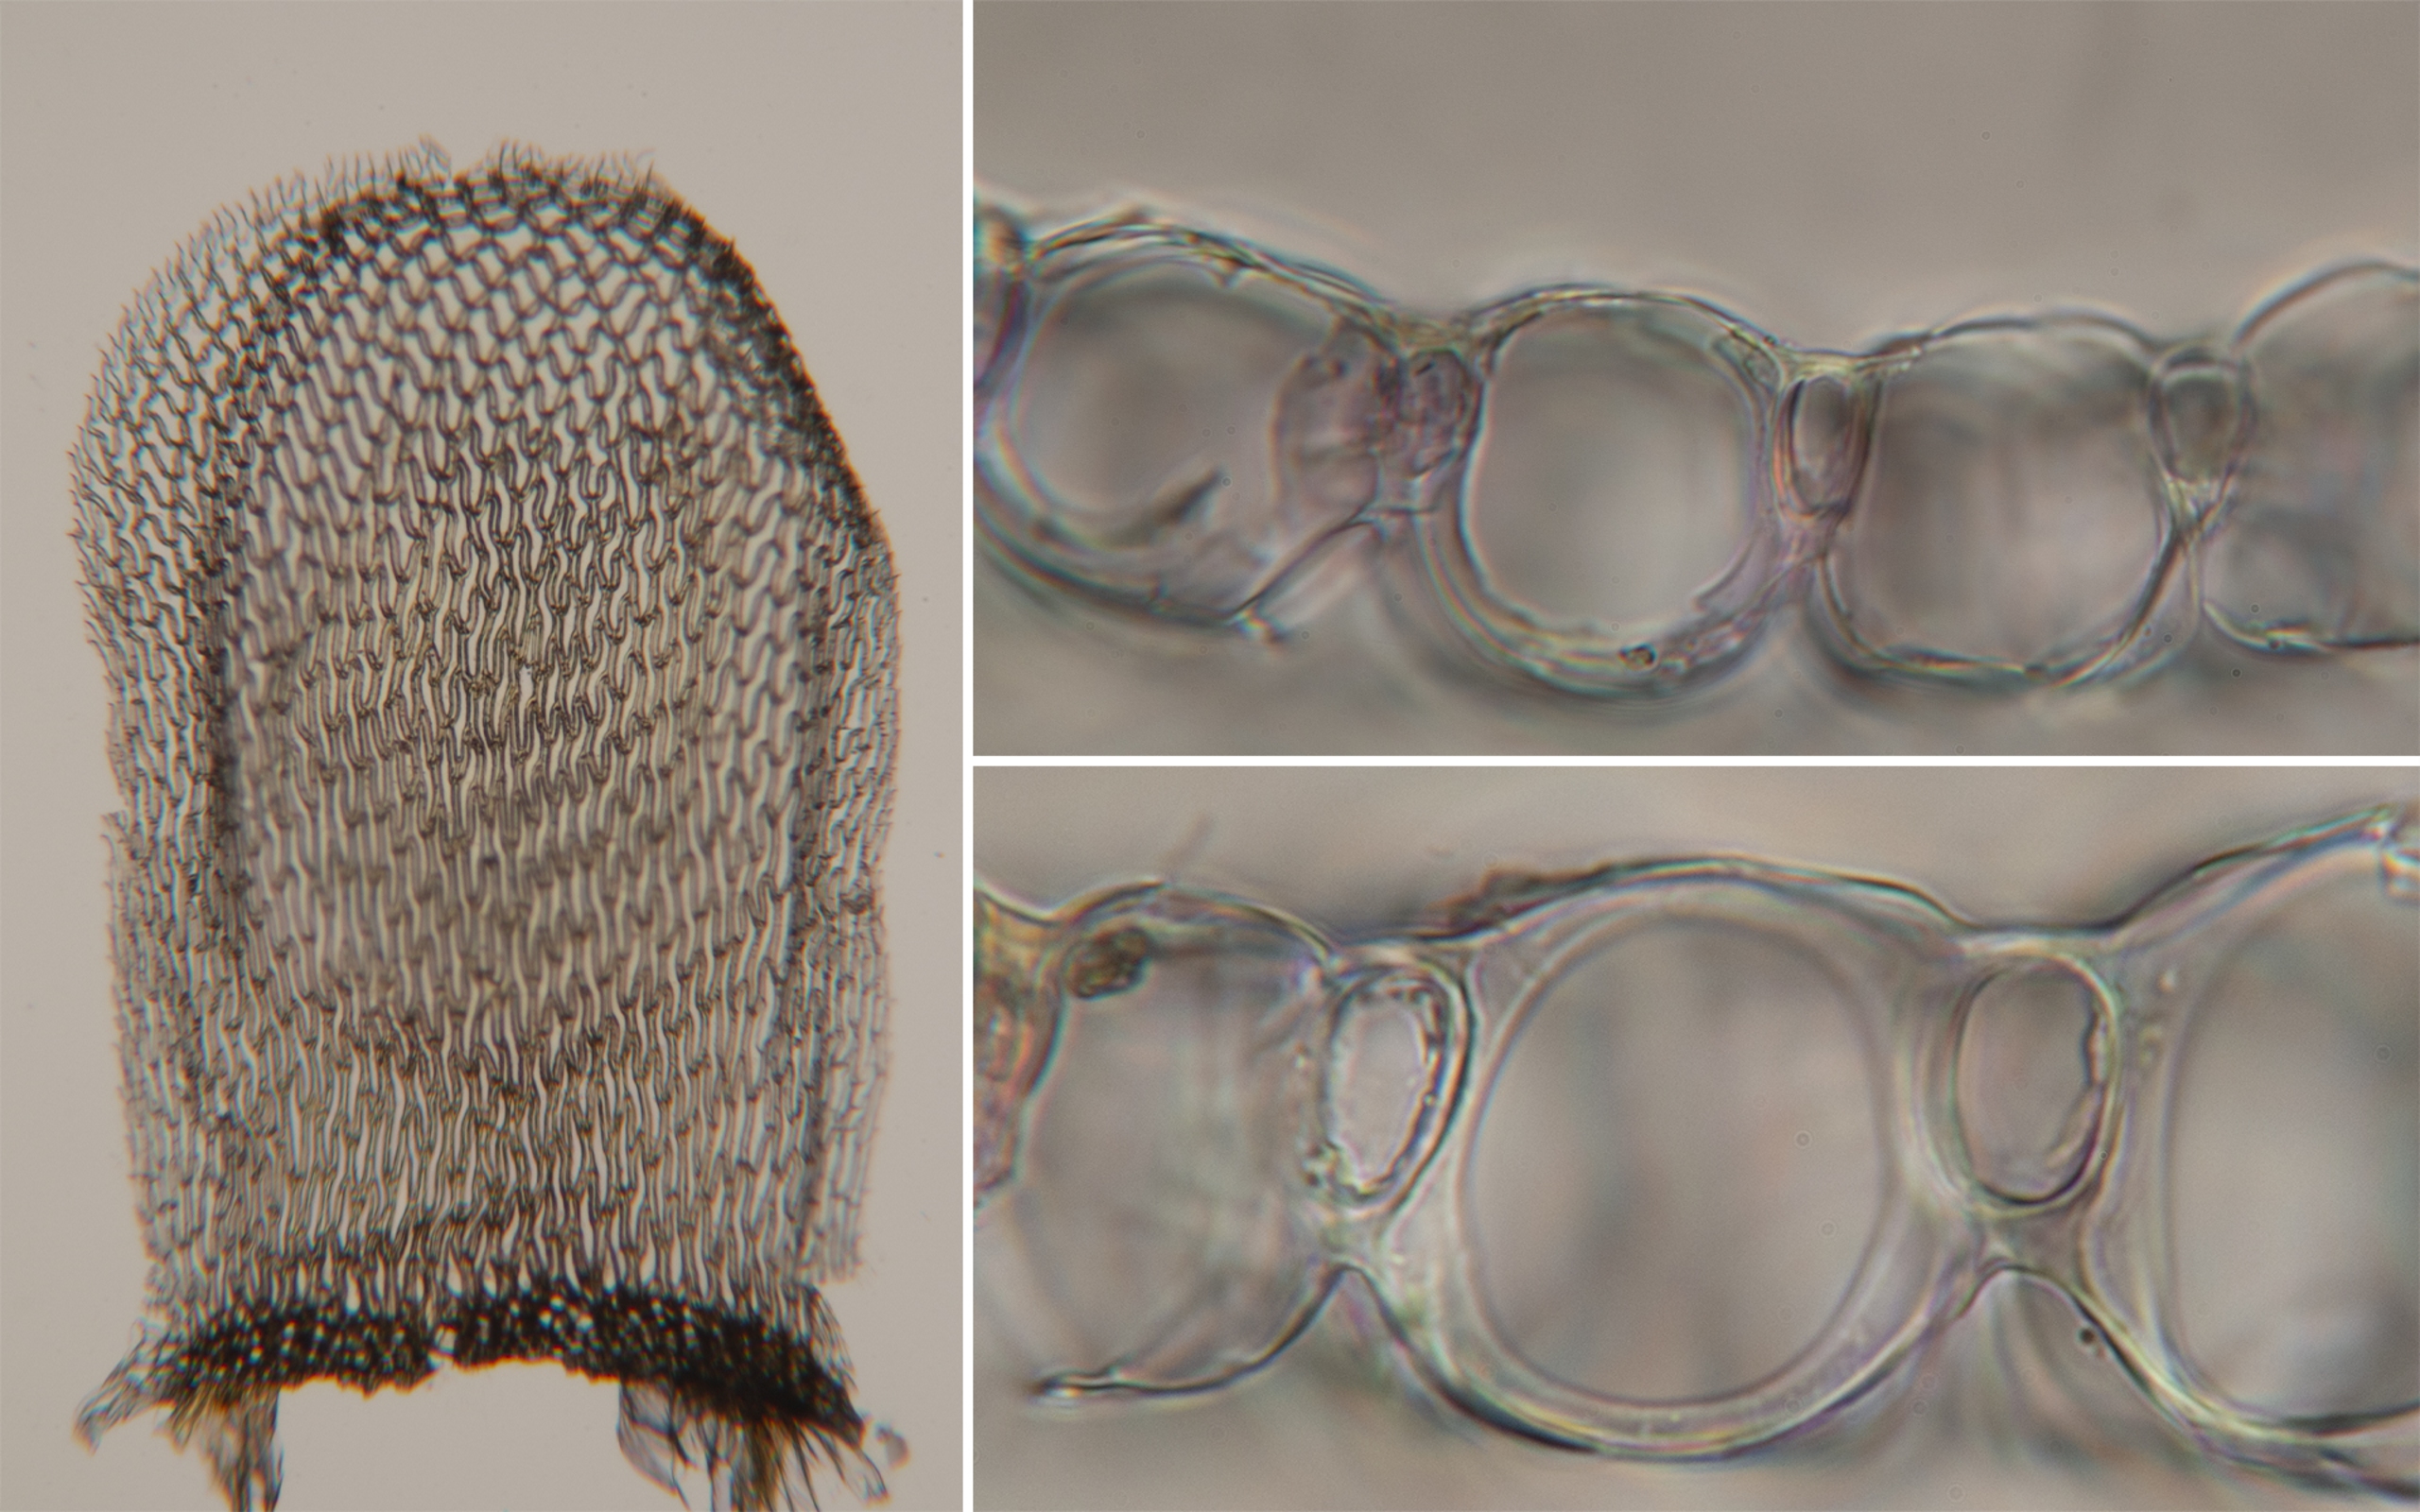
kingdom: Plantae
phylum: Bryophyta
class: Sphagnopsida
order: Sphagnales
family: Sphagnaceae
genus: Sphagnum
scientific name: Sphagnum palustre
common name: Almindelig tørvemos
